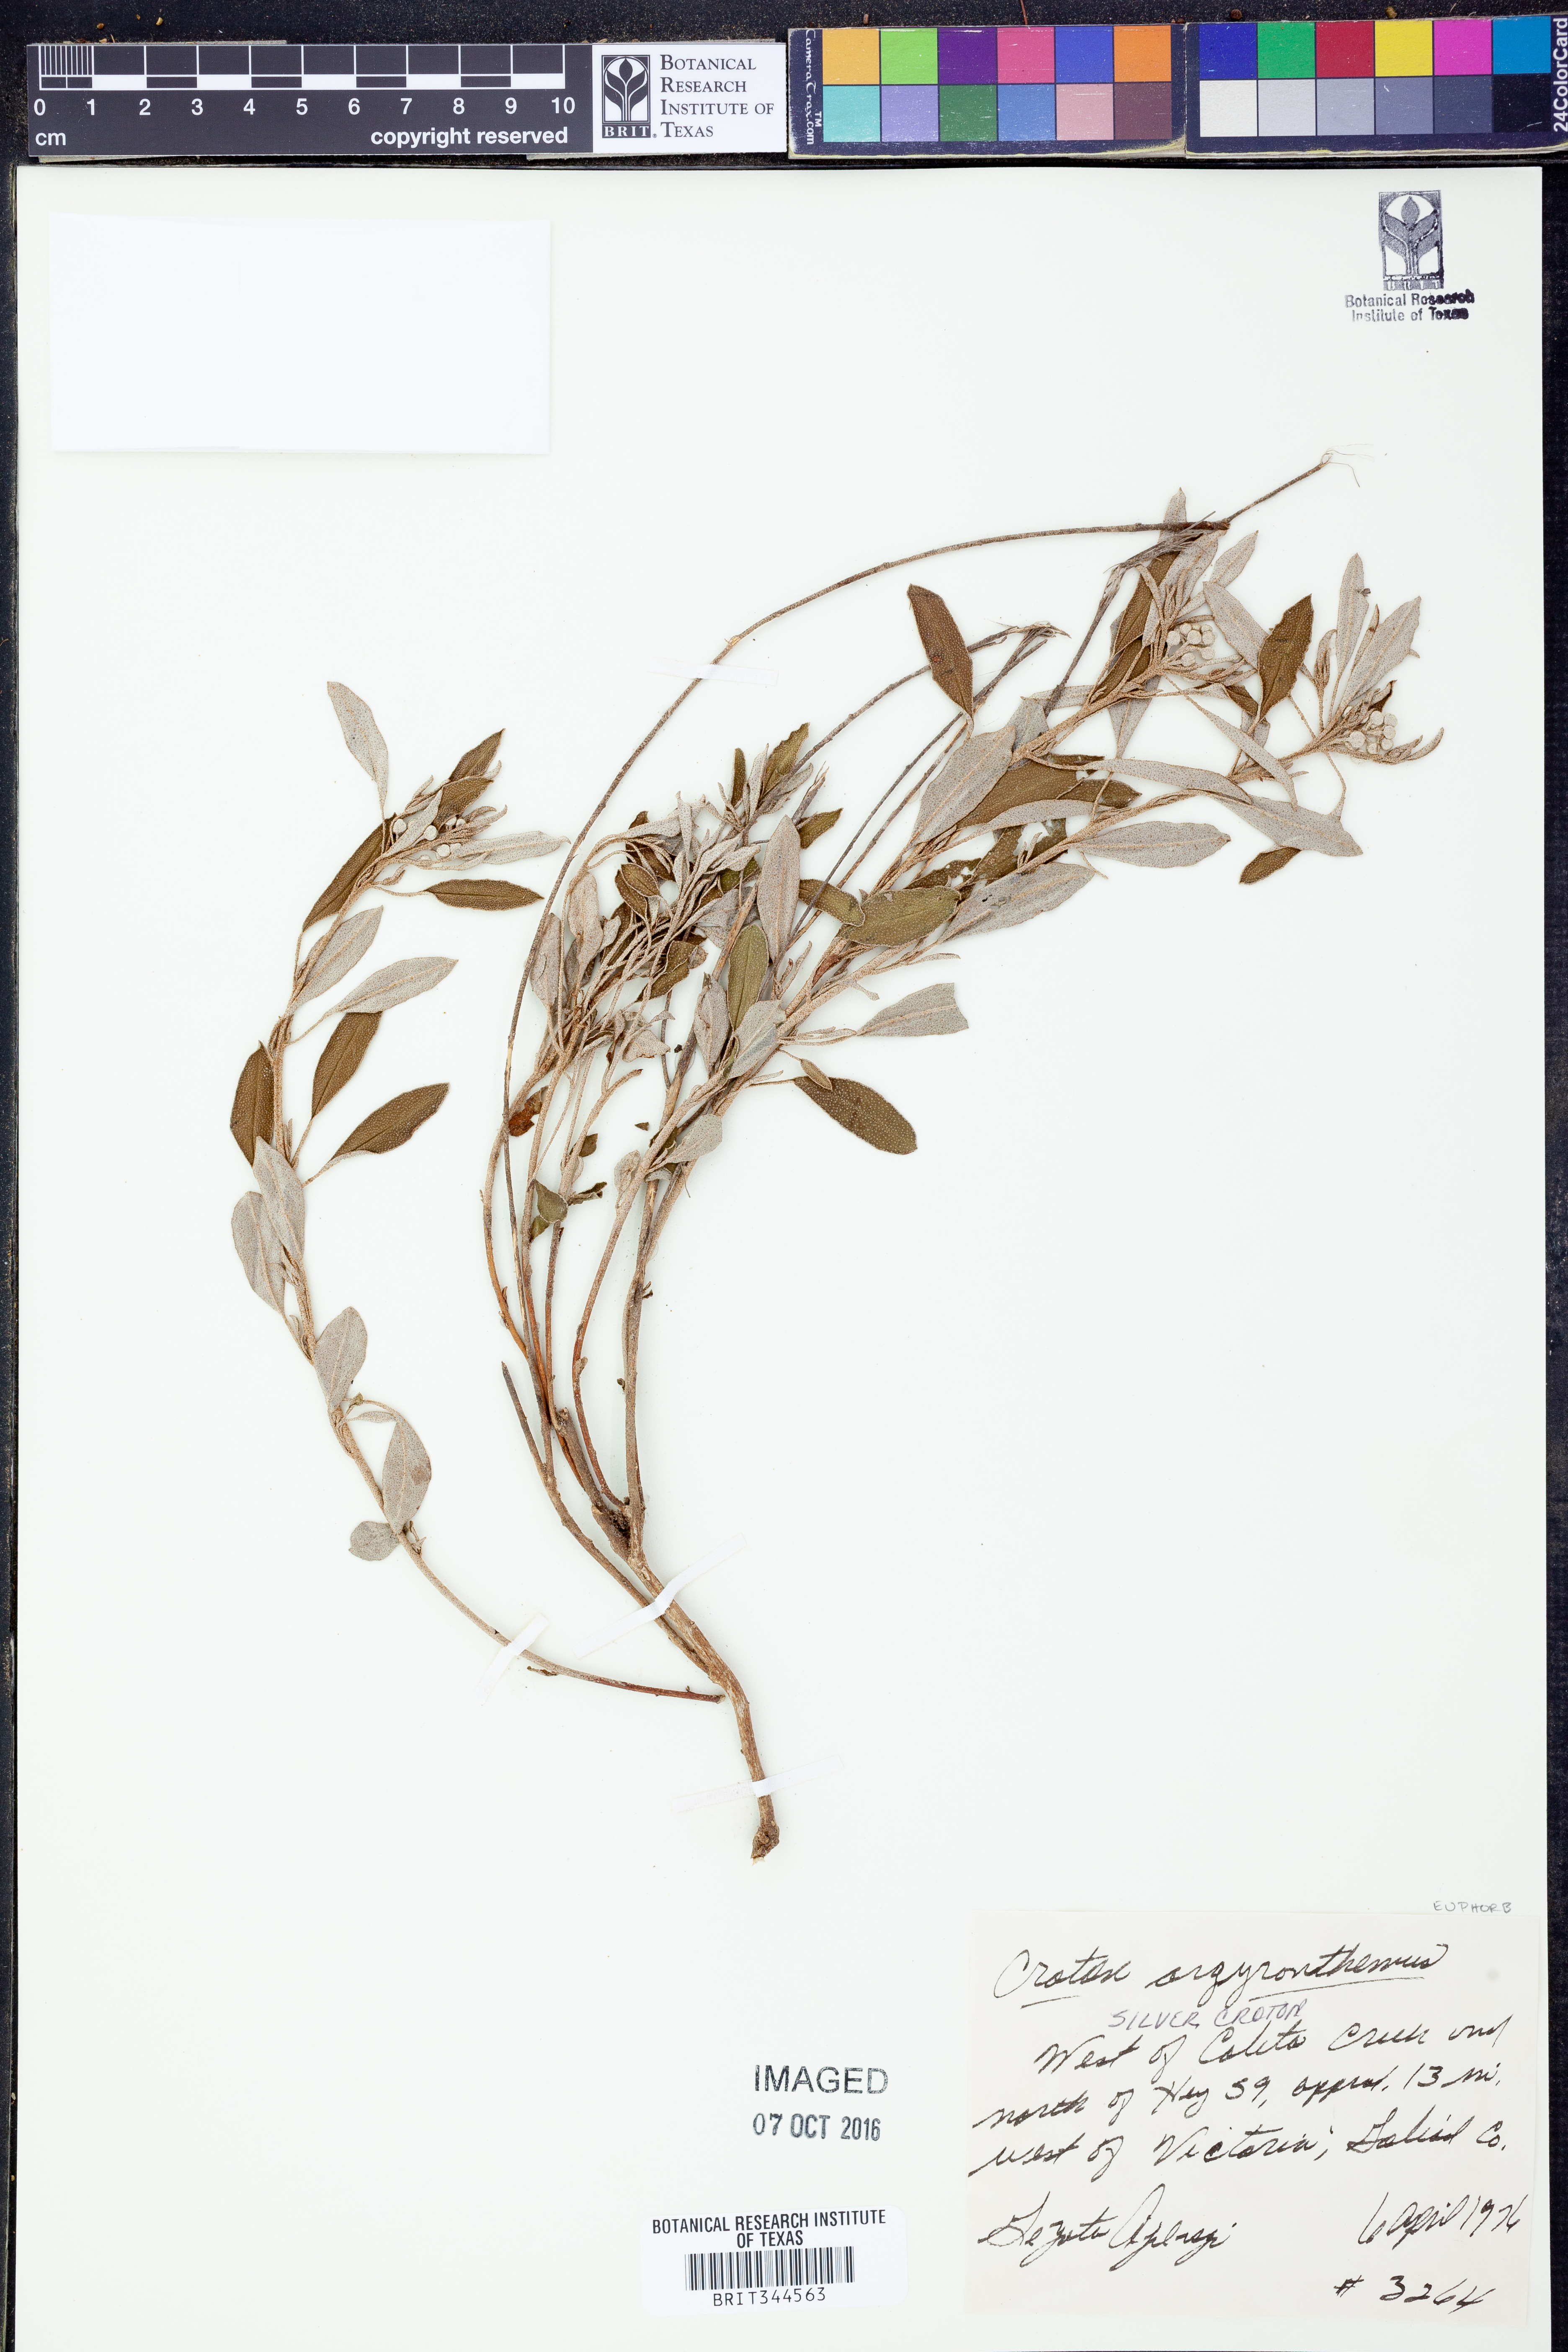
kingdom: Plantae
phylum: Tracheophyta
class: Magnoliopsida
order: Malpighiales
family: Euphorbiaceae
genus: Croton
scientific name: Croton argyranthemus
